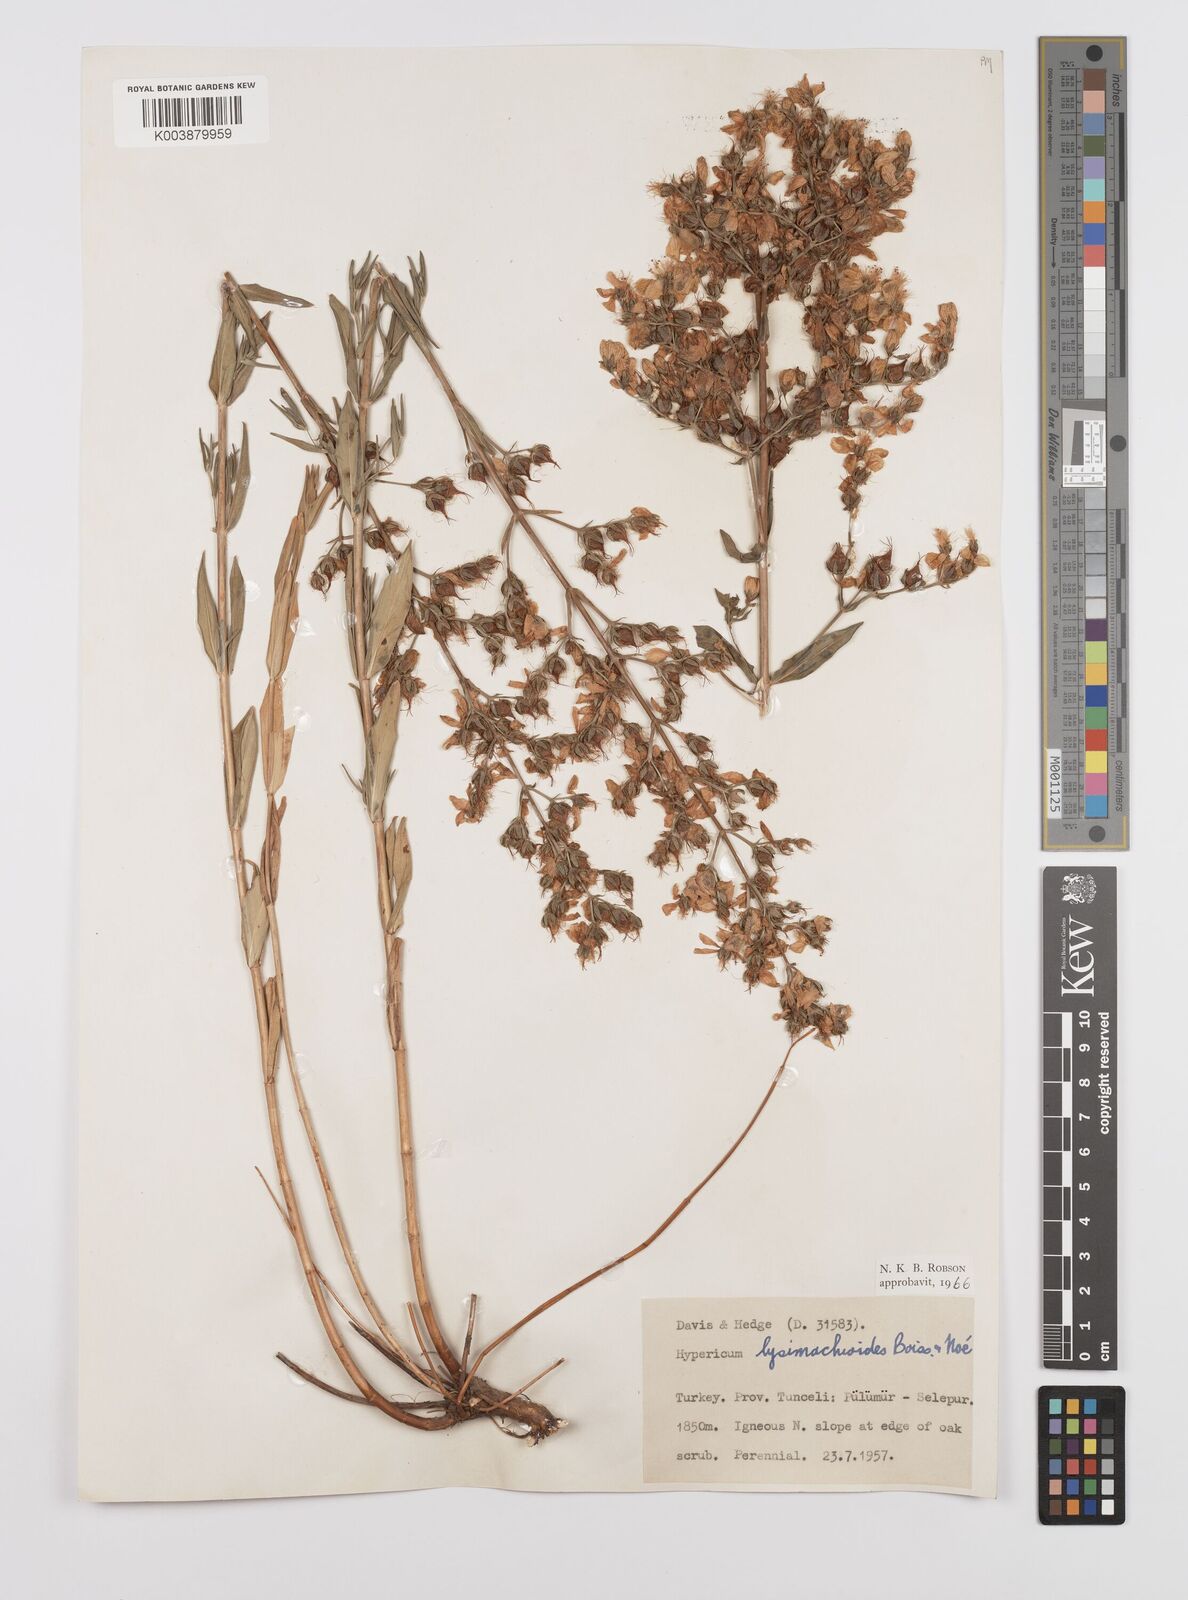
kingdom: Plantae
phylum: Tracheophyta
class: Magnoliopsida
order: Malpighiales
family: Hypericaceae
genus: Hypericum
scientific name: Hypericum lysimachioides
